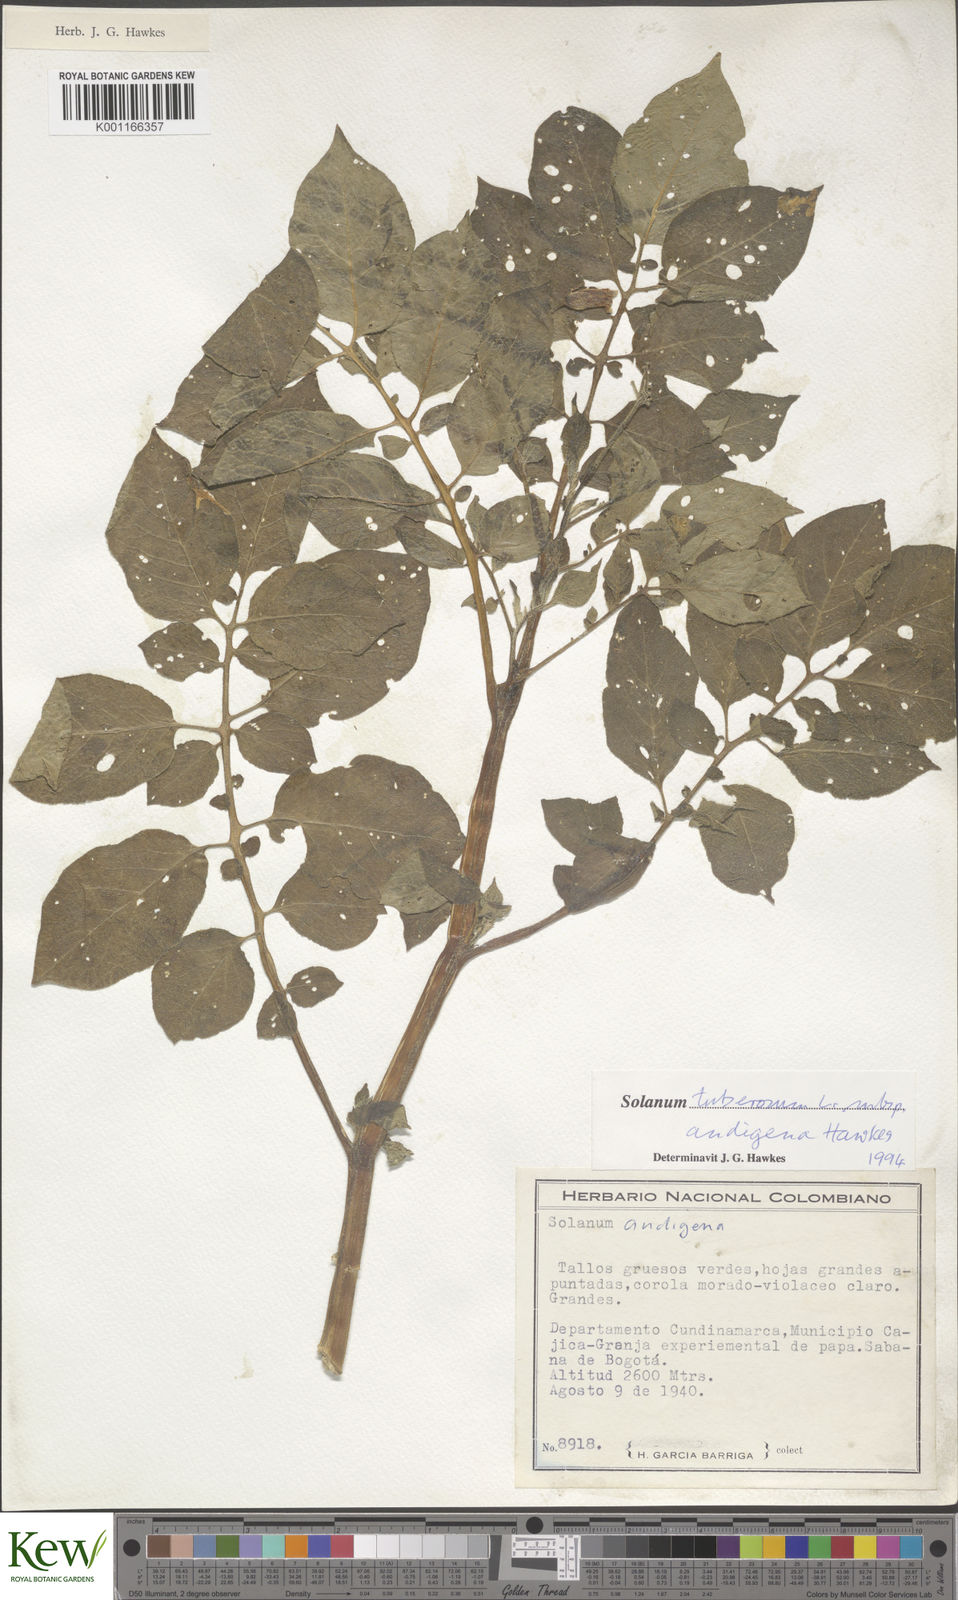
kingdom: Plantae
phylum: Tracheophyta
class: Magnoliopsida
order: Solanales
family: Solanaceae
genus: Solanum
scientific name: Solanum tuberosum
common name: Potato
